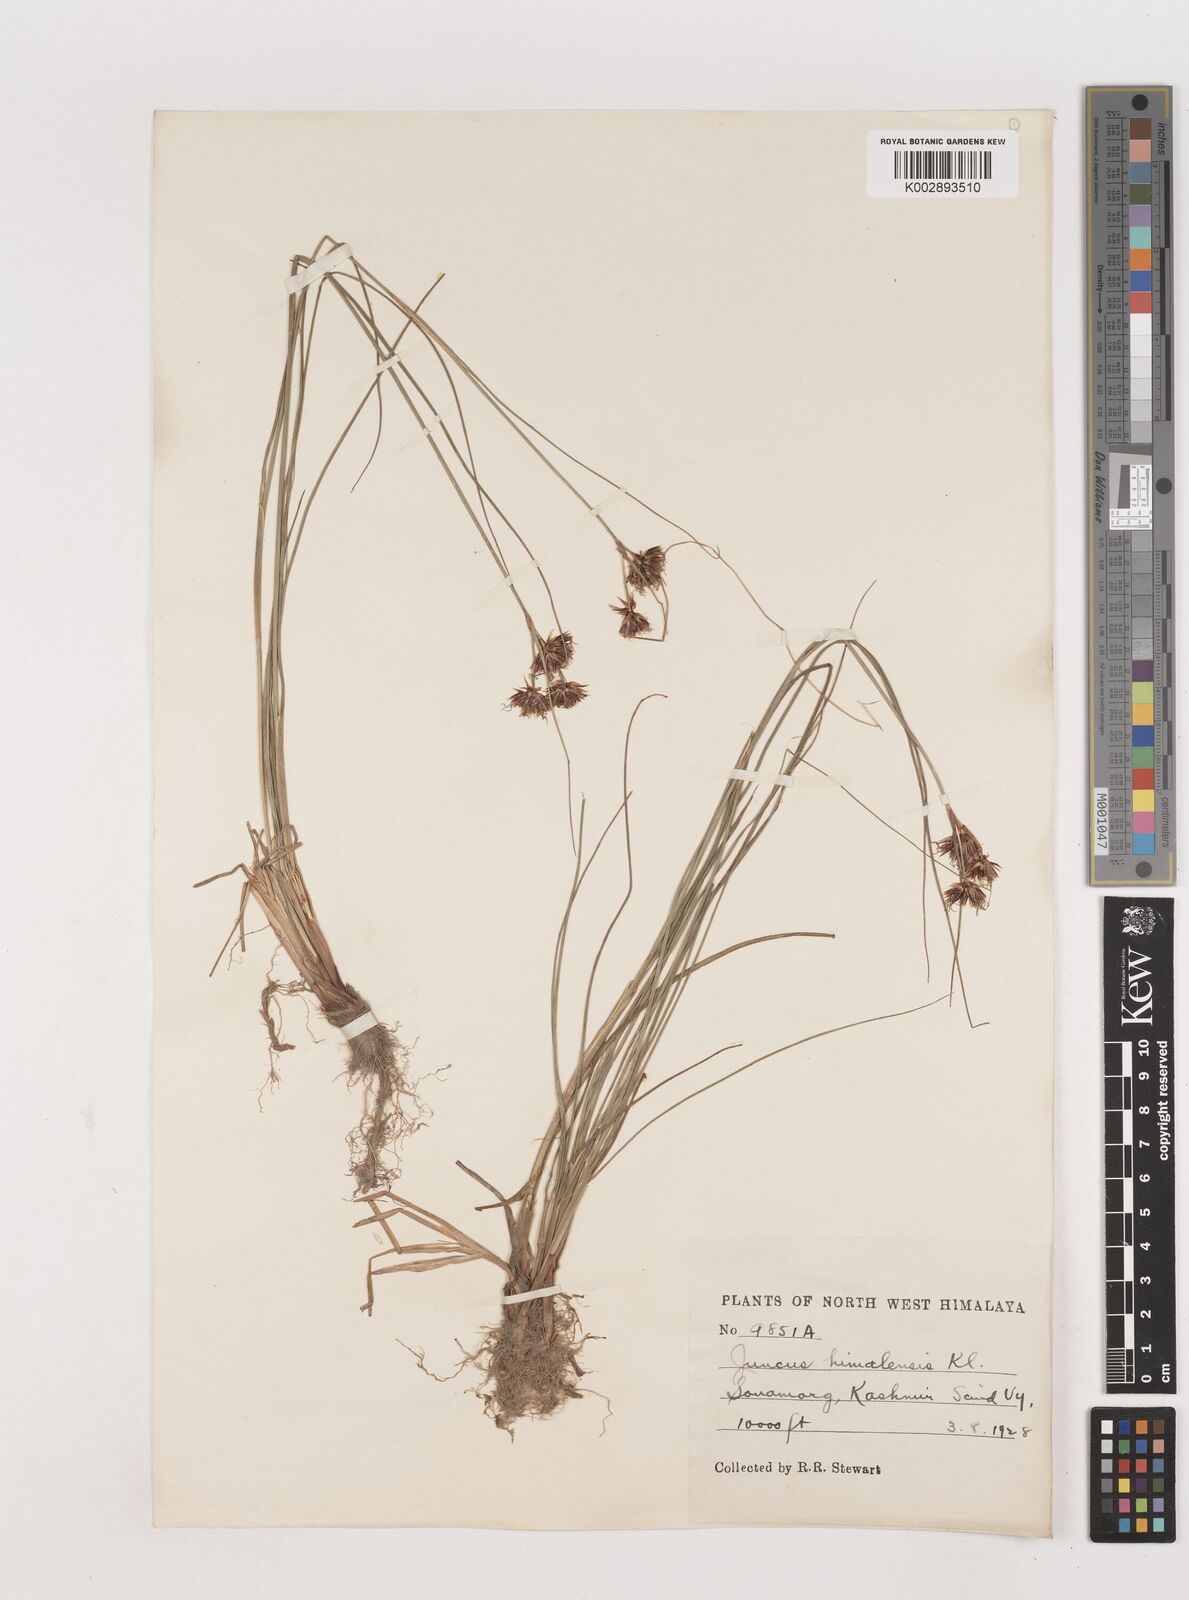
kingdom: Plantae
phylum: Tracheophyta
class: Liliopsida
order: Poales
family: Juncaceae
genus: Juncus
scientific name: Juncus himalensis
